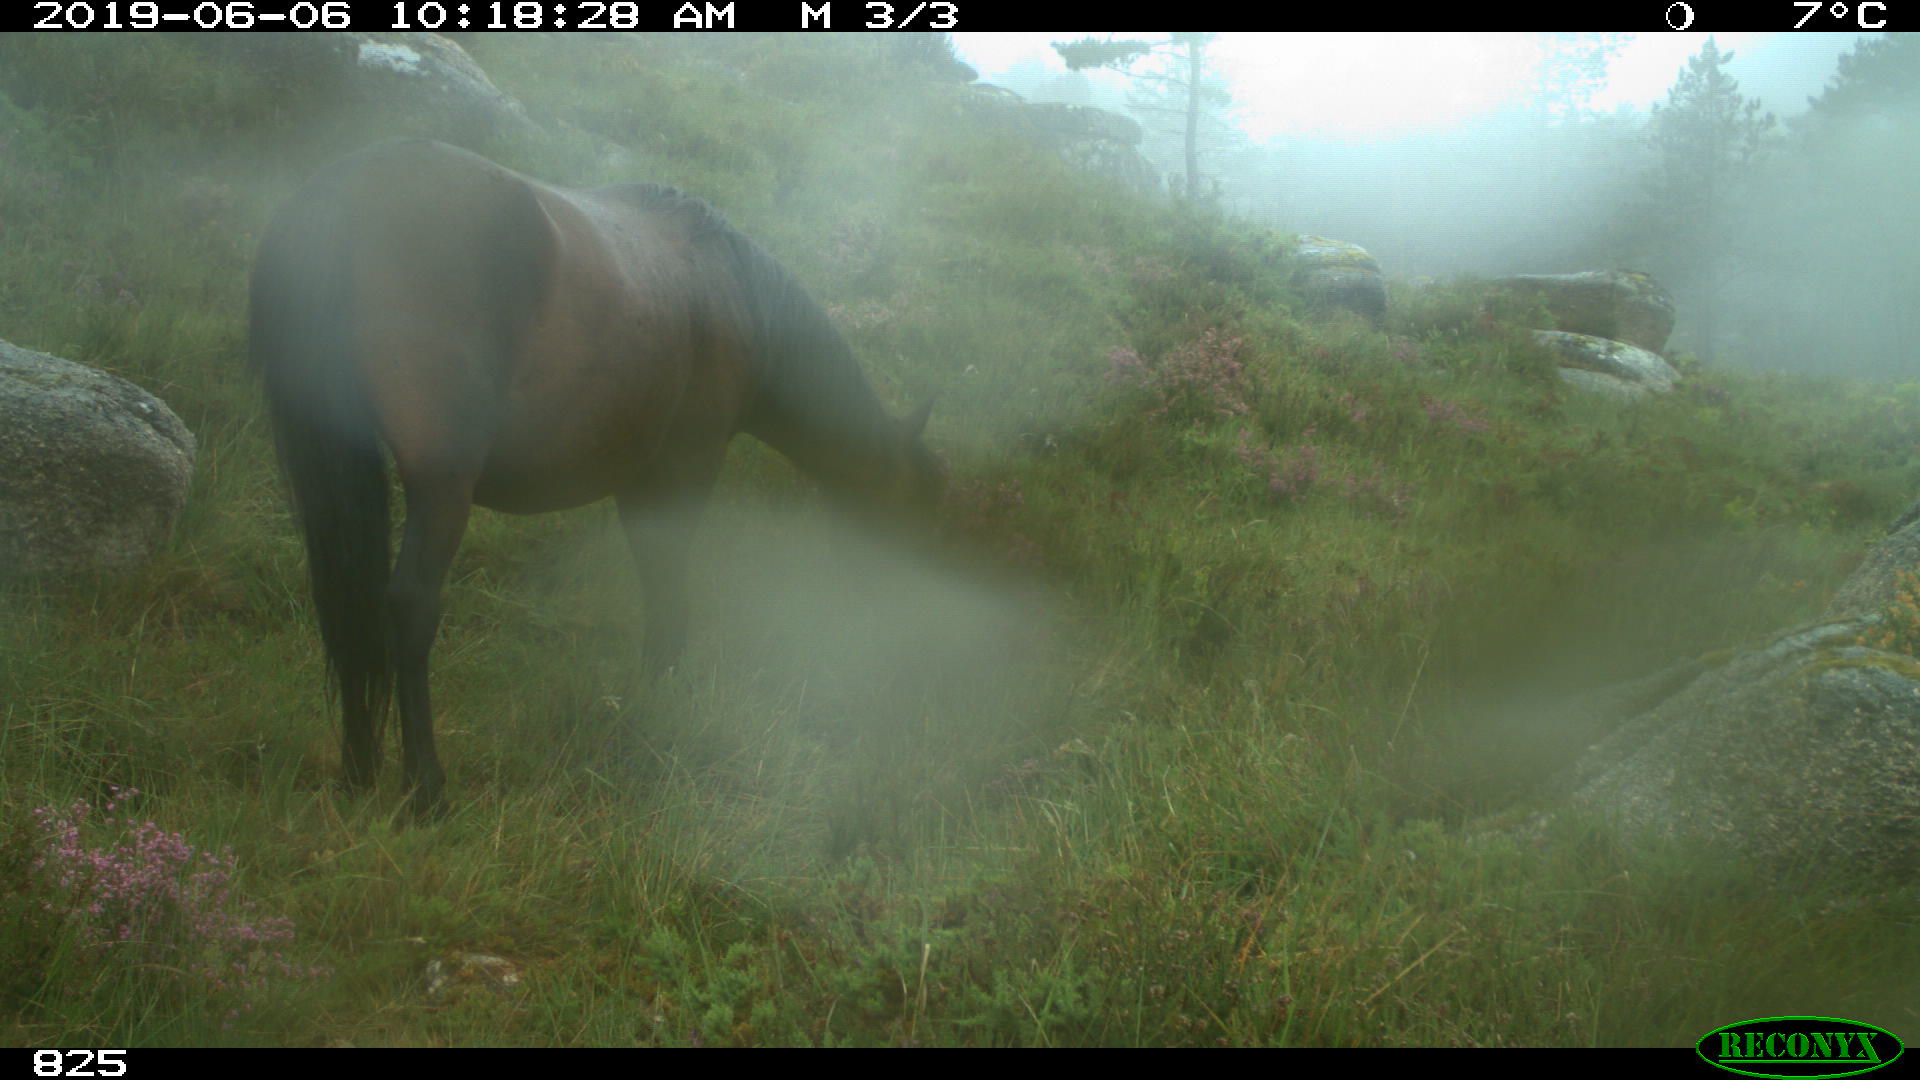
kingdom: Animalia
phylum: Chordata
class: Mammalia
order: Perissodactyla
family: Equidae
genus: Equus
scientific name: Equus caballus
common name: Horse
